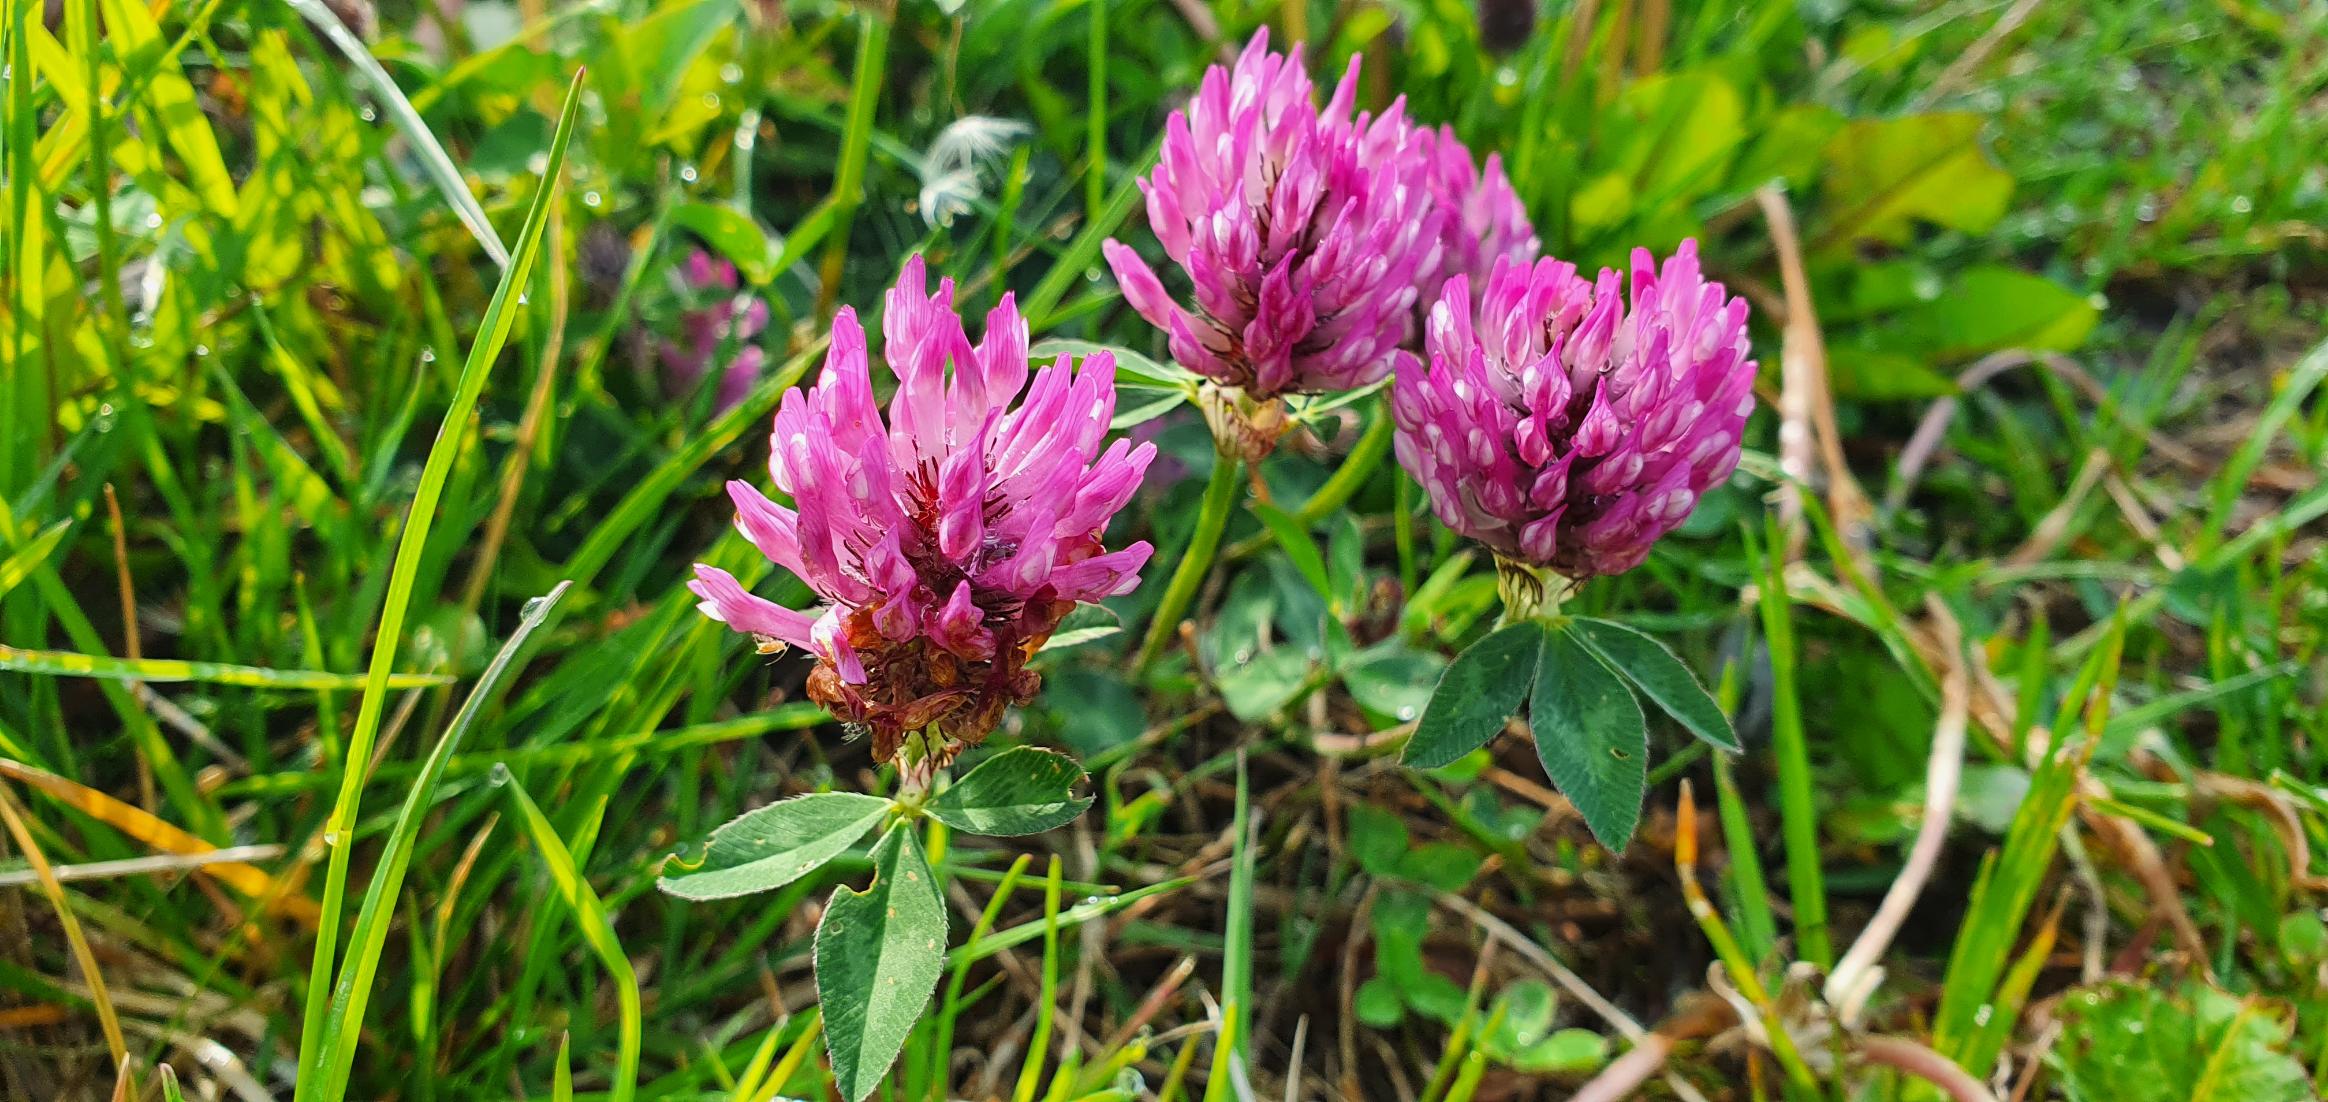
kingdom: Plantae
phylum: Tracheophyta
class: Magnoliopsida
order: Fabales
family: Fabaceae
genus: Trifolium
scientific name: Trifolium pratense
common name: Rød-kløver
